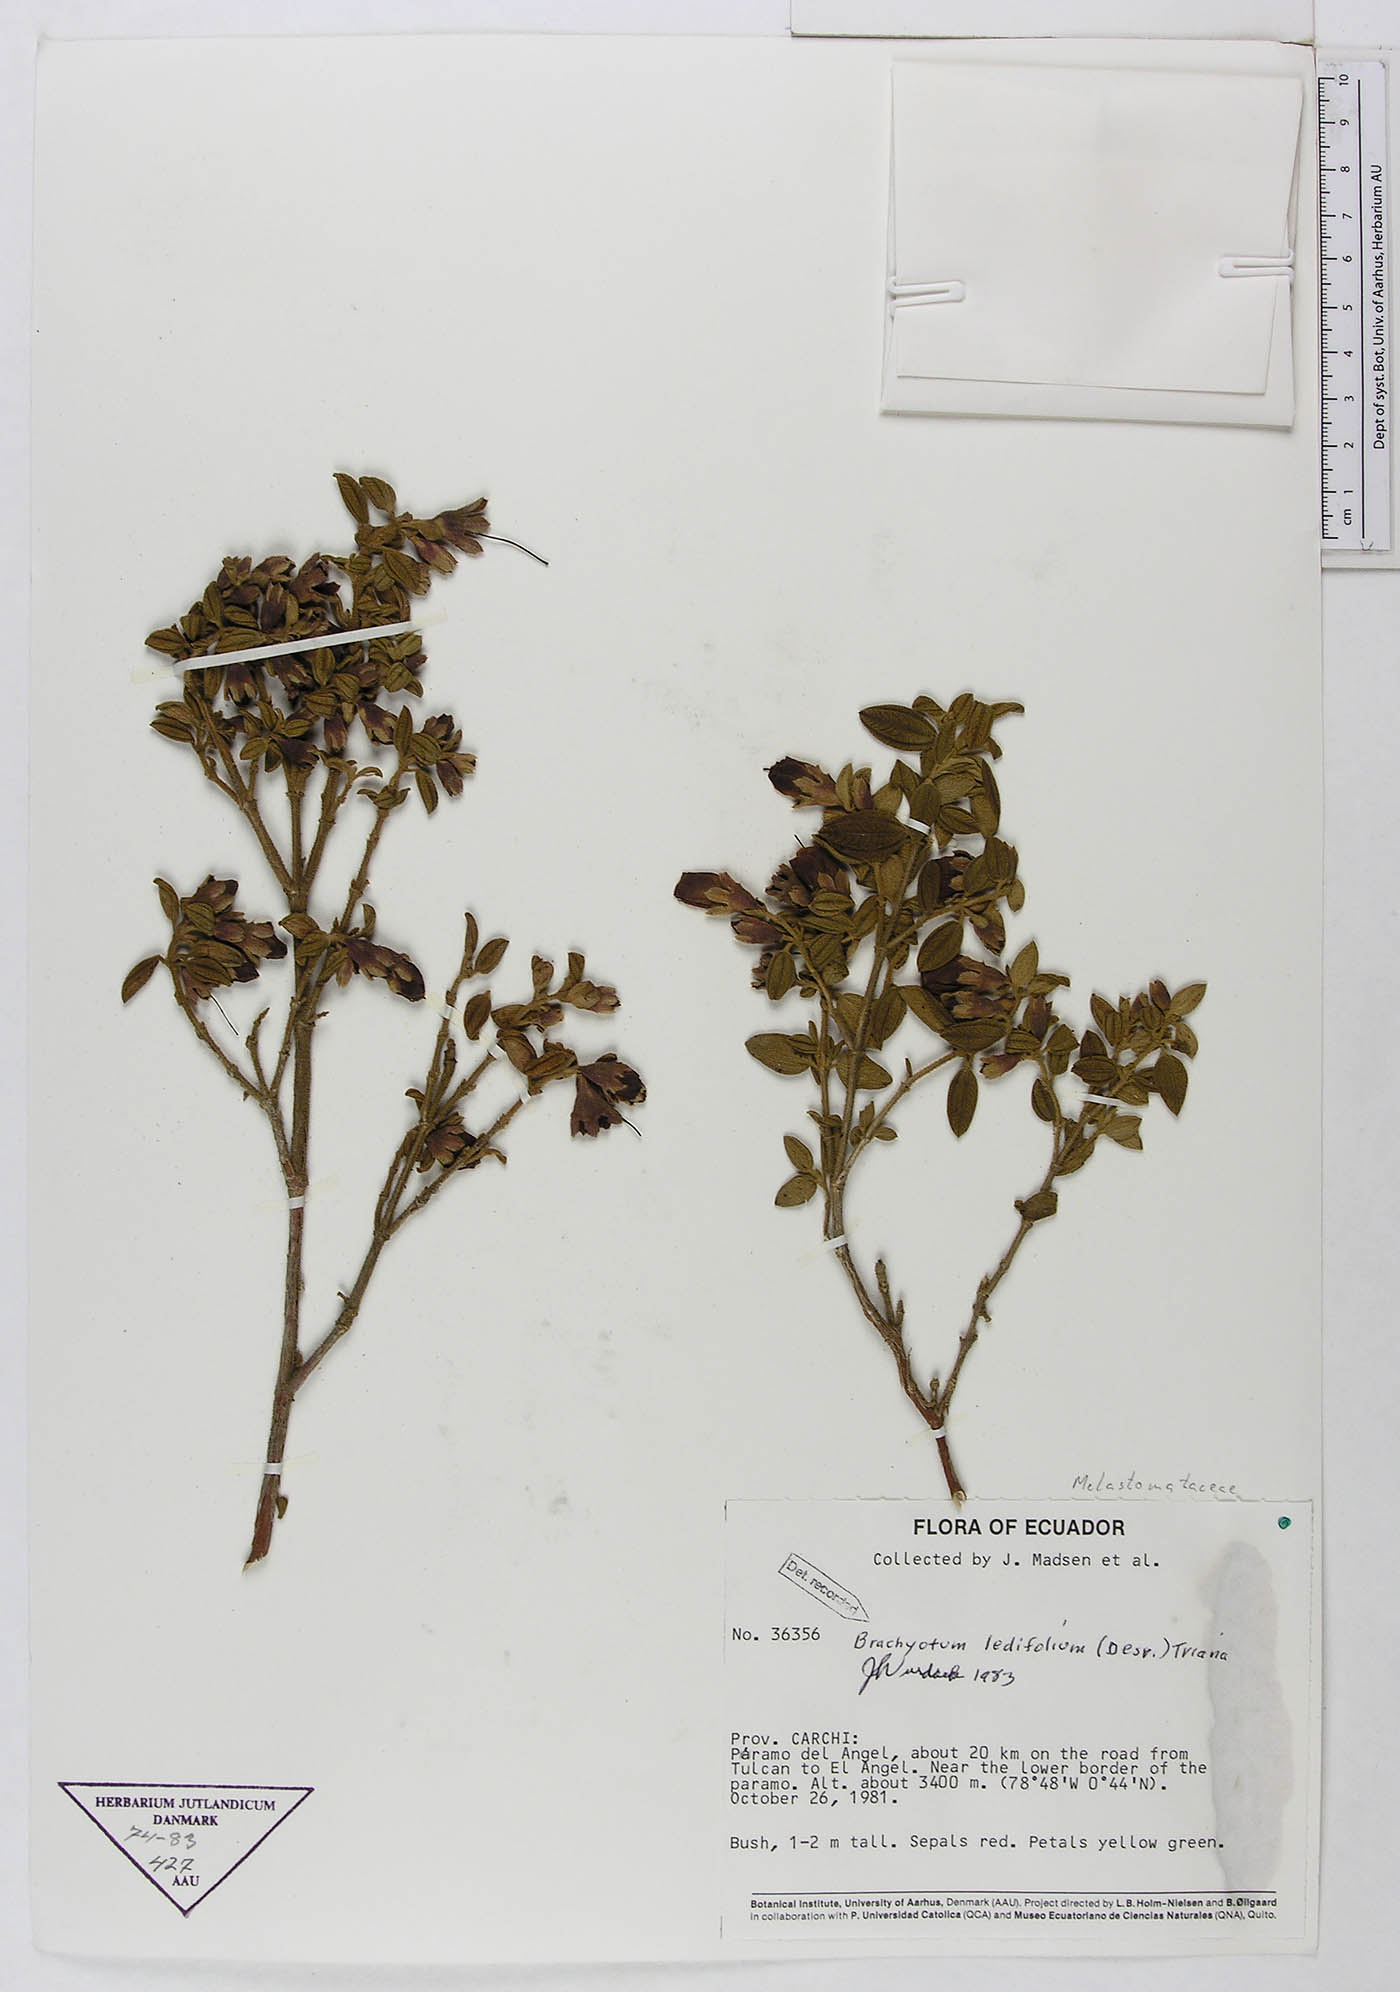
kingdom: Plantae
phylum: Tracheophyta
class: Magnoliopsida
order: Myrtales
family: Melastomataceae
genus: Brachyotum
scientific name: Brachyotum ledifolium
